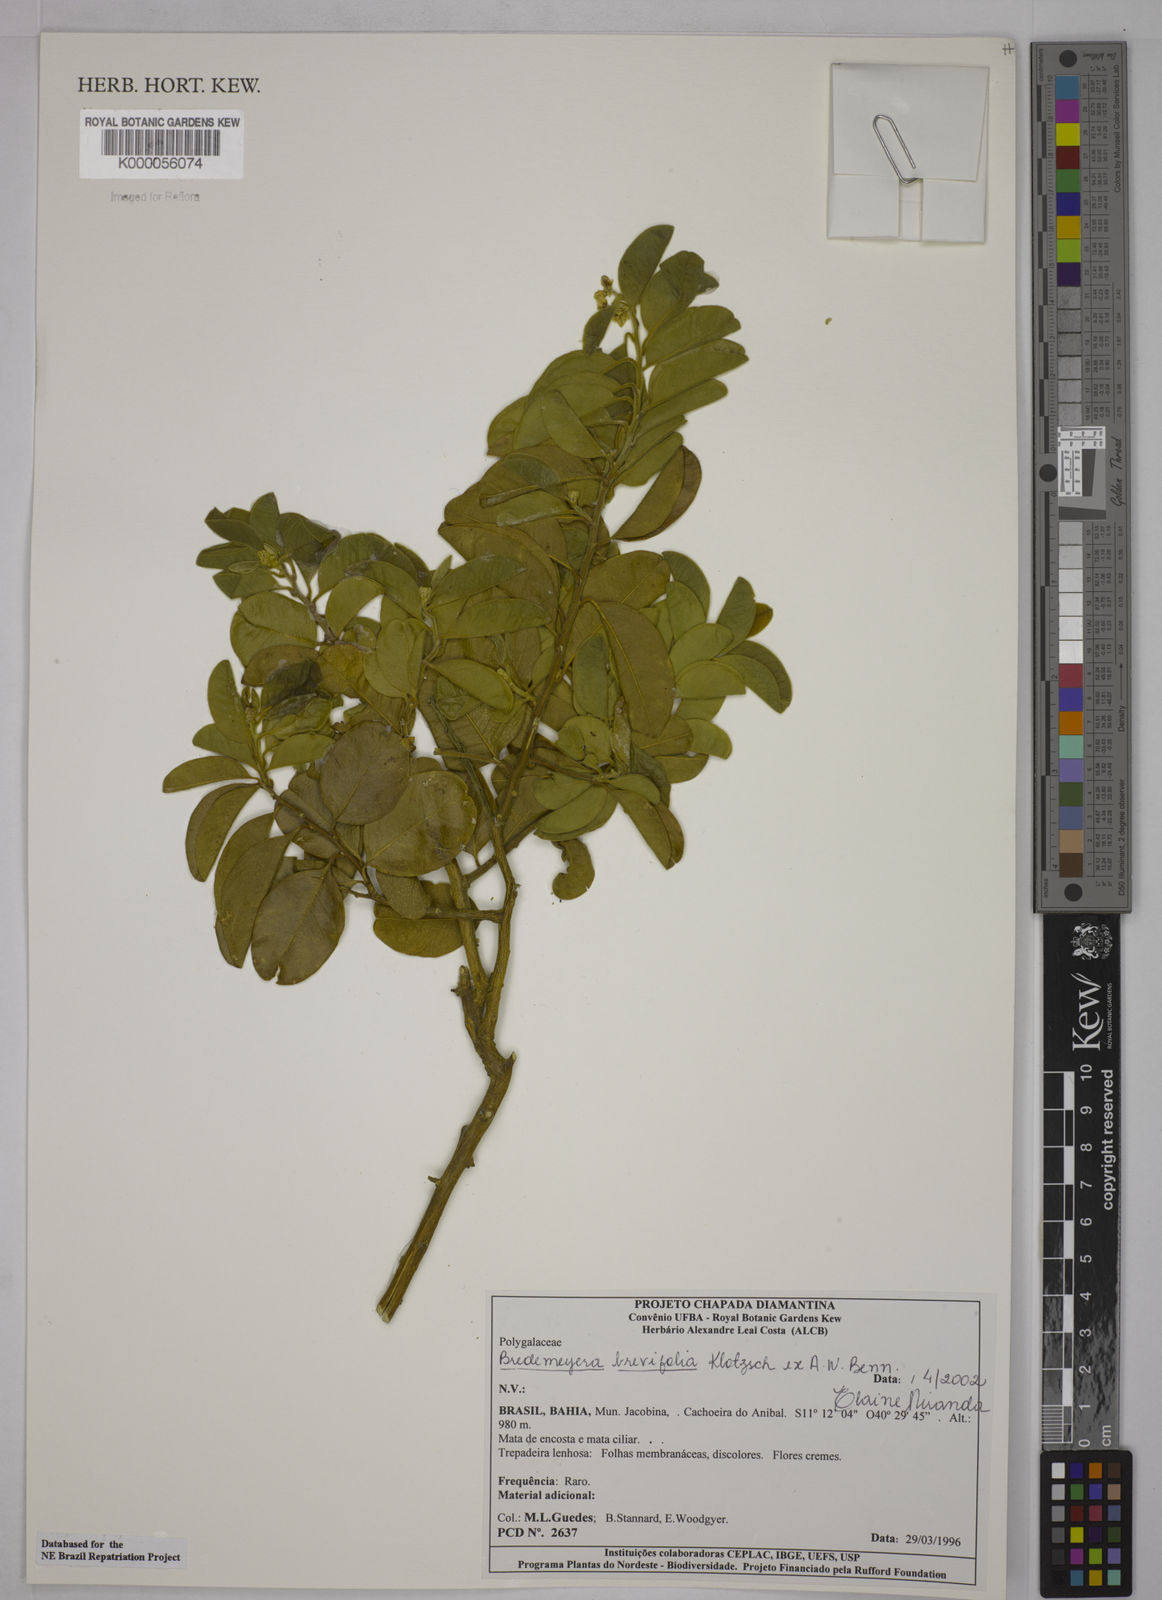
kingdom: Plantae
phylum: Tracheophyta
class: Magnoliopsida
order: Fabales
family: Polygalaceae
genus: Bredemeyera
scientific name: Bredemeyera brevifolia
